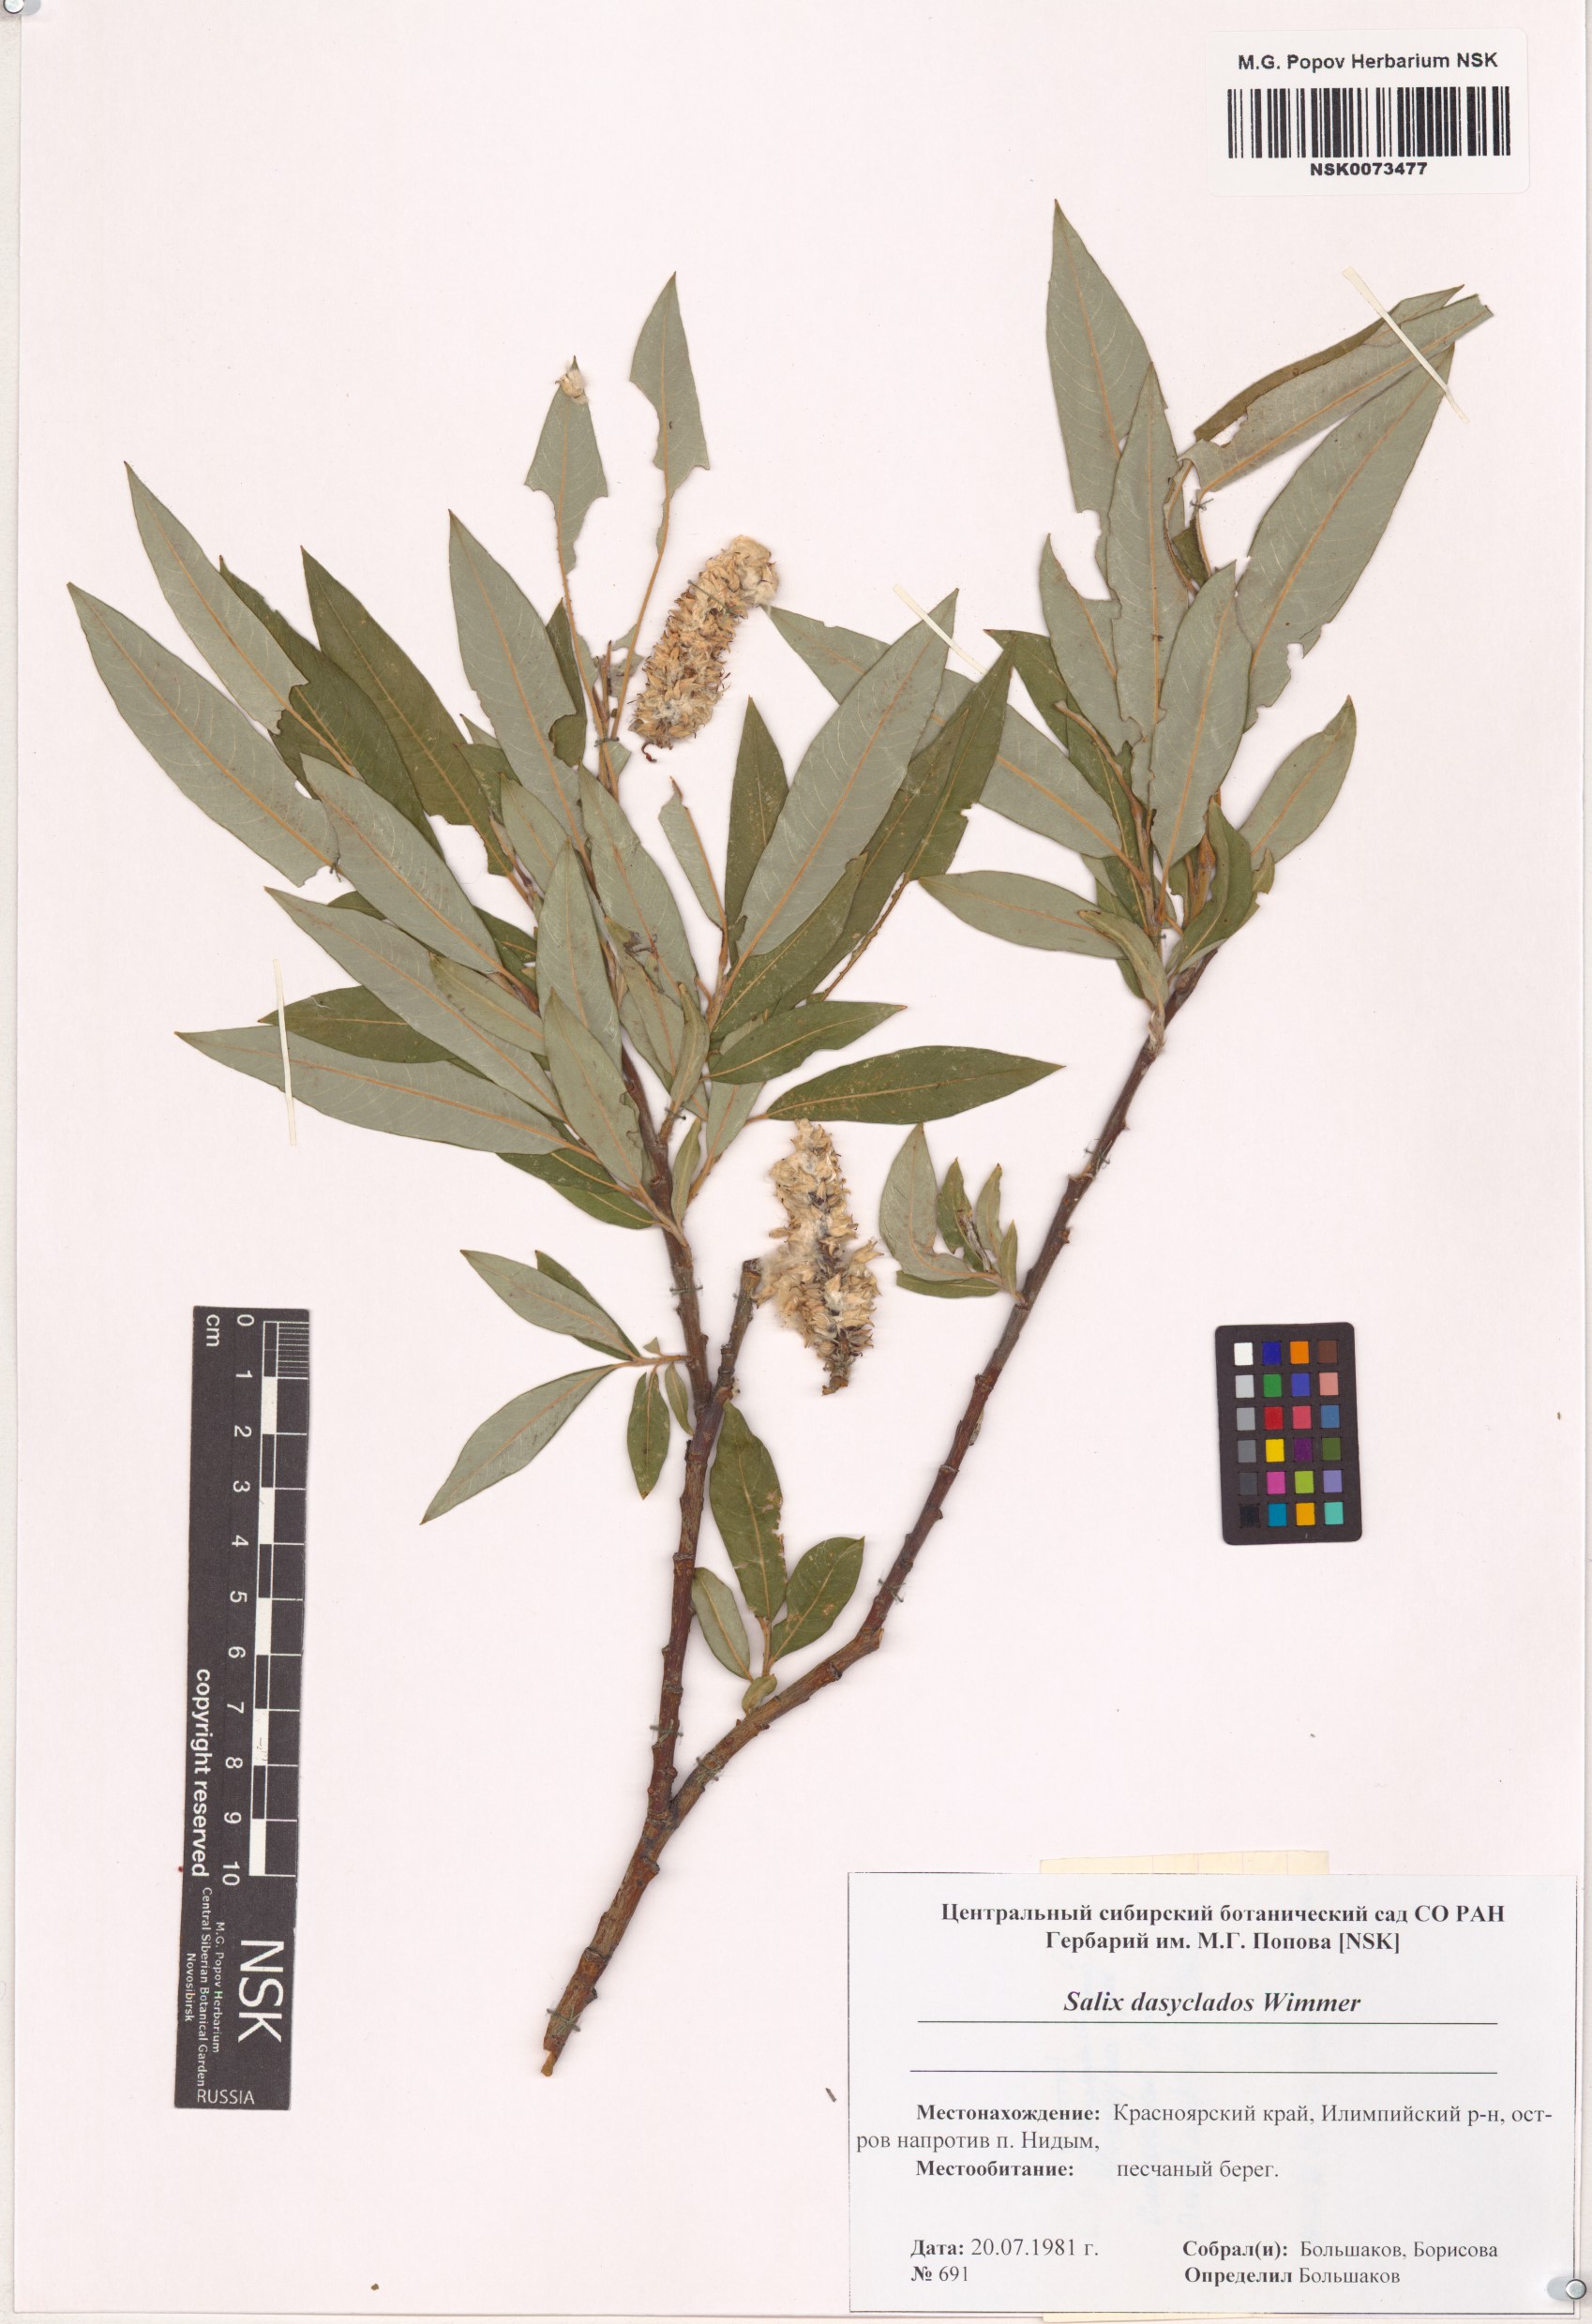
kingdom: Plantae
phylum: Tracheophyta
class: Magnoliopsida
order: Malpighiales
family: Salicaceae
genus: Salix
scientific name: Salix gmelinii
